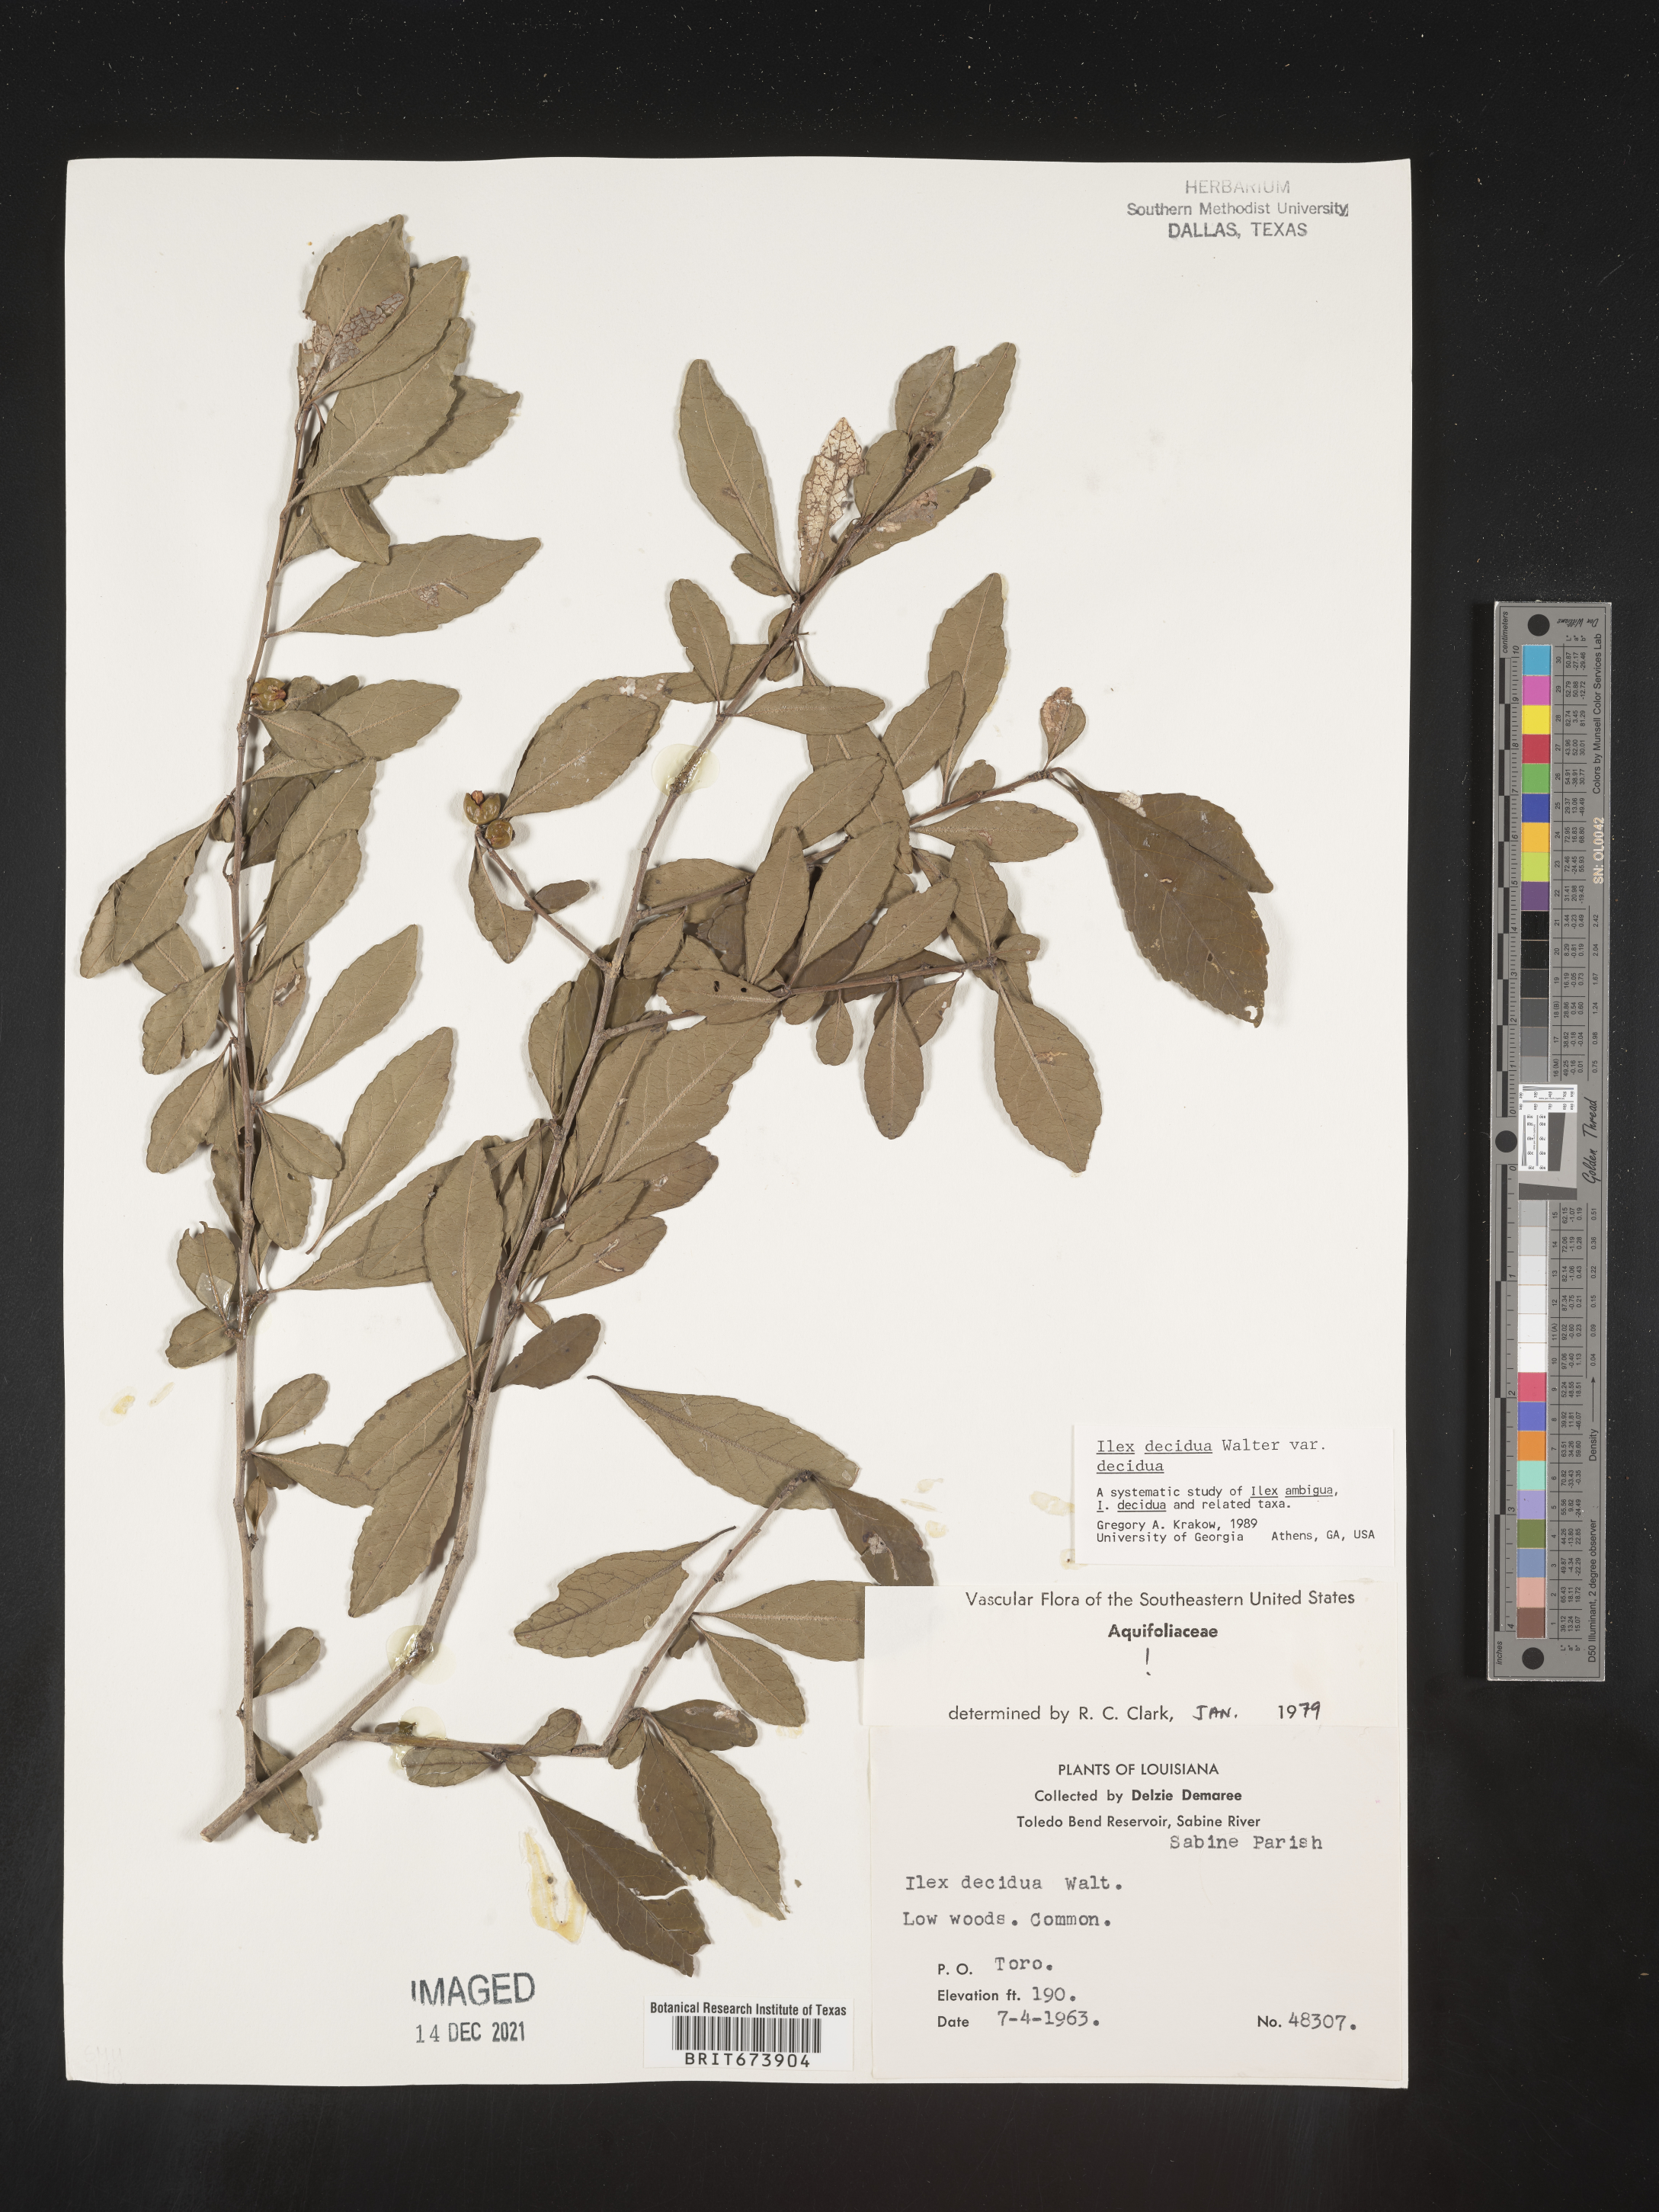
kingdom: Plantae
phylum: Tracheophyta
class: Magnoliopsida
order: Aquifoliales
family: Aquifoliaceae
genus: Ilex
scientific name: Ilex decidua
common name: Possum-haw
